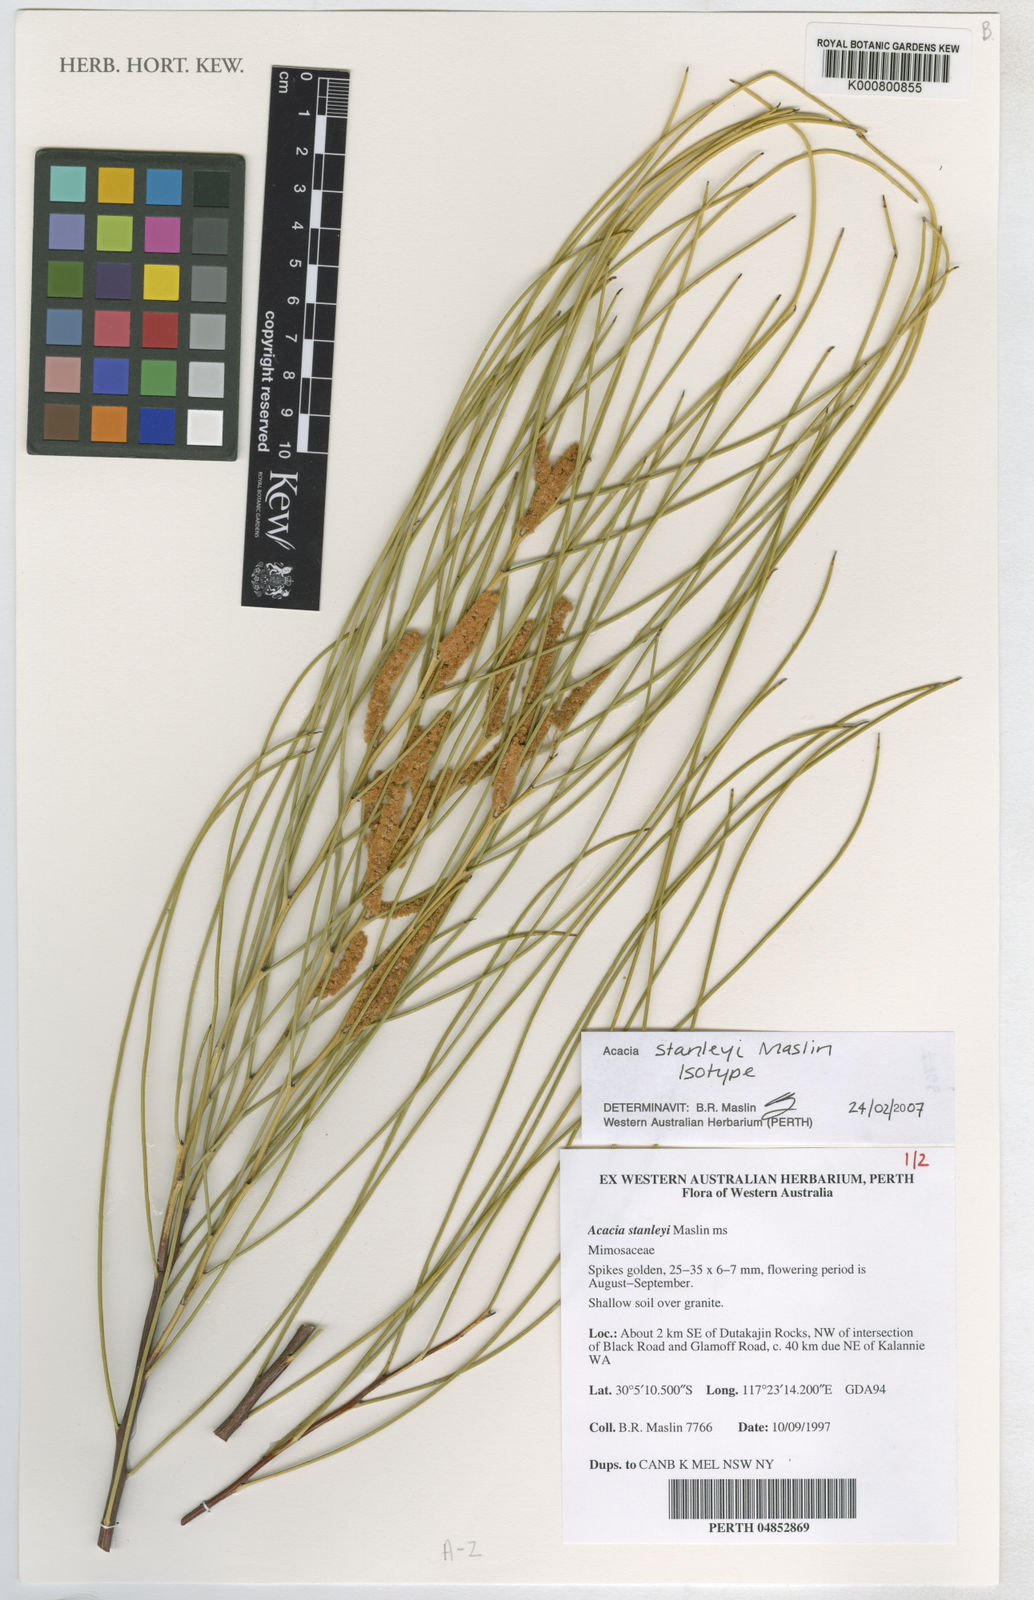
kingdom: Plantae
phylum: Tracheophyta
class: Magnoliopsida
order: Fabales
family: Fabaceae
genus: Acacia
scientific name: Acacia stanleyi
